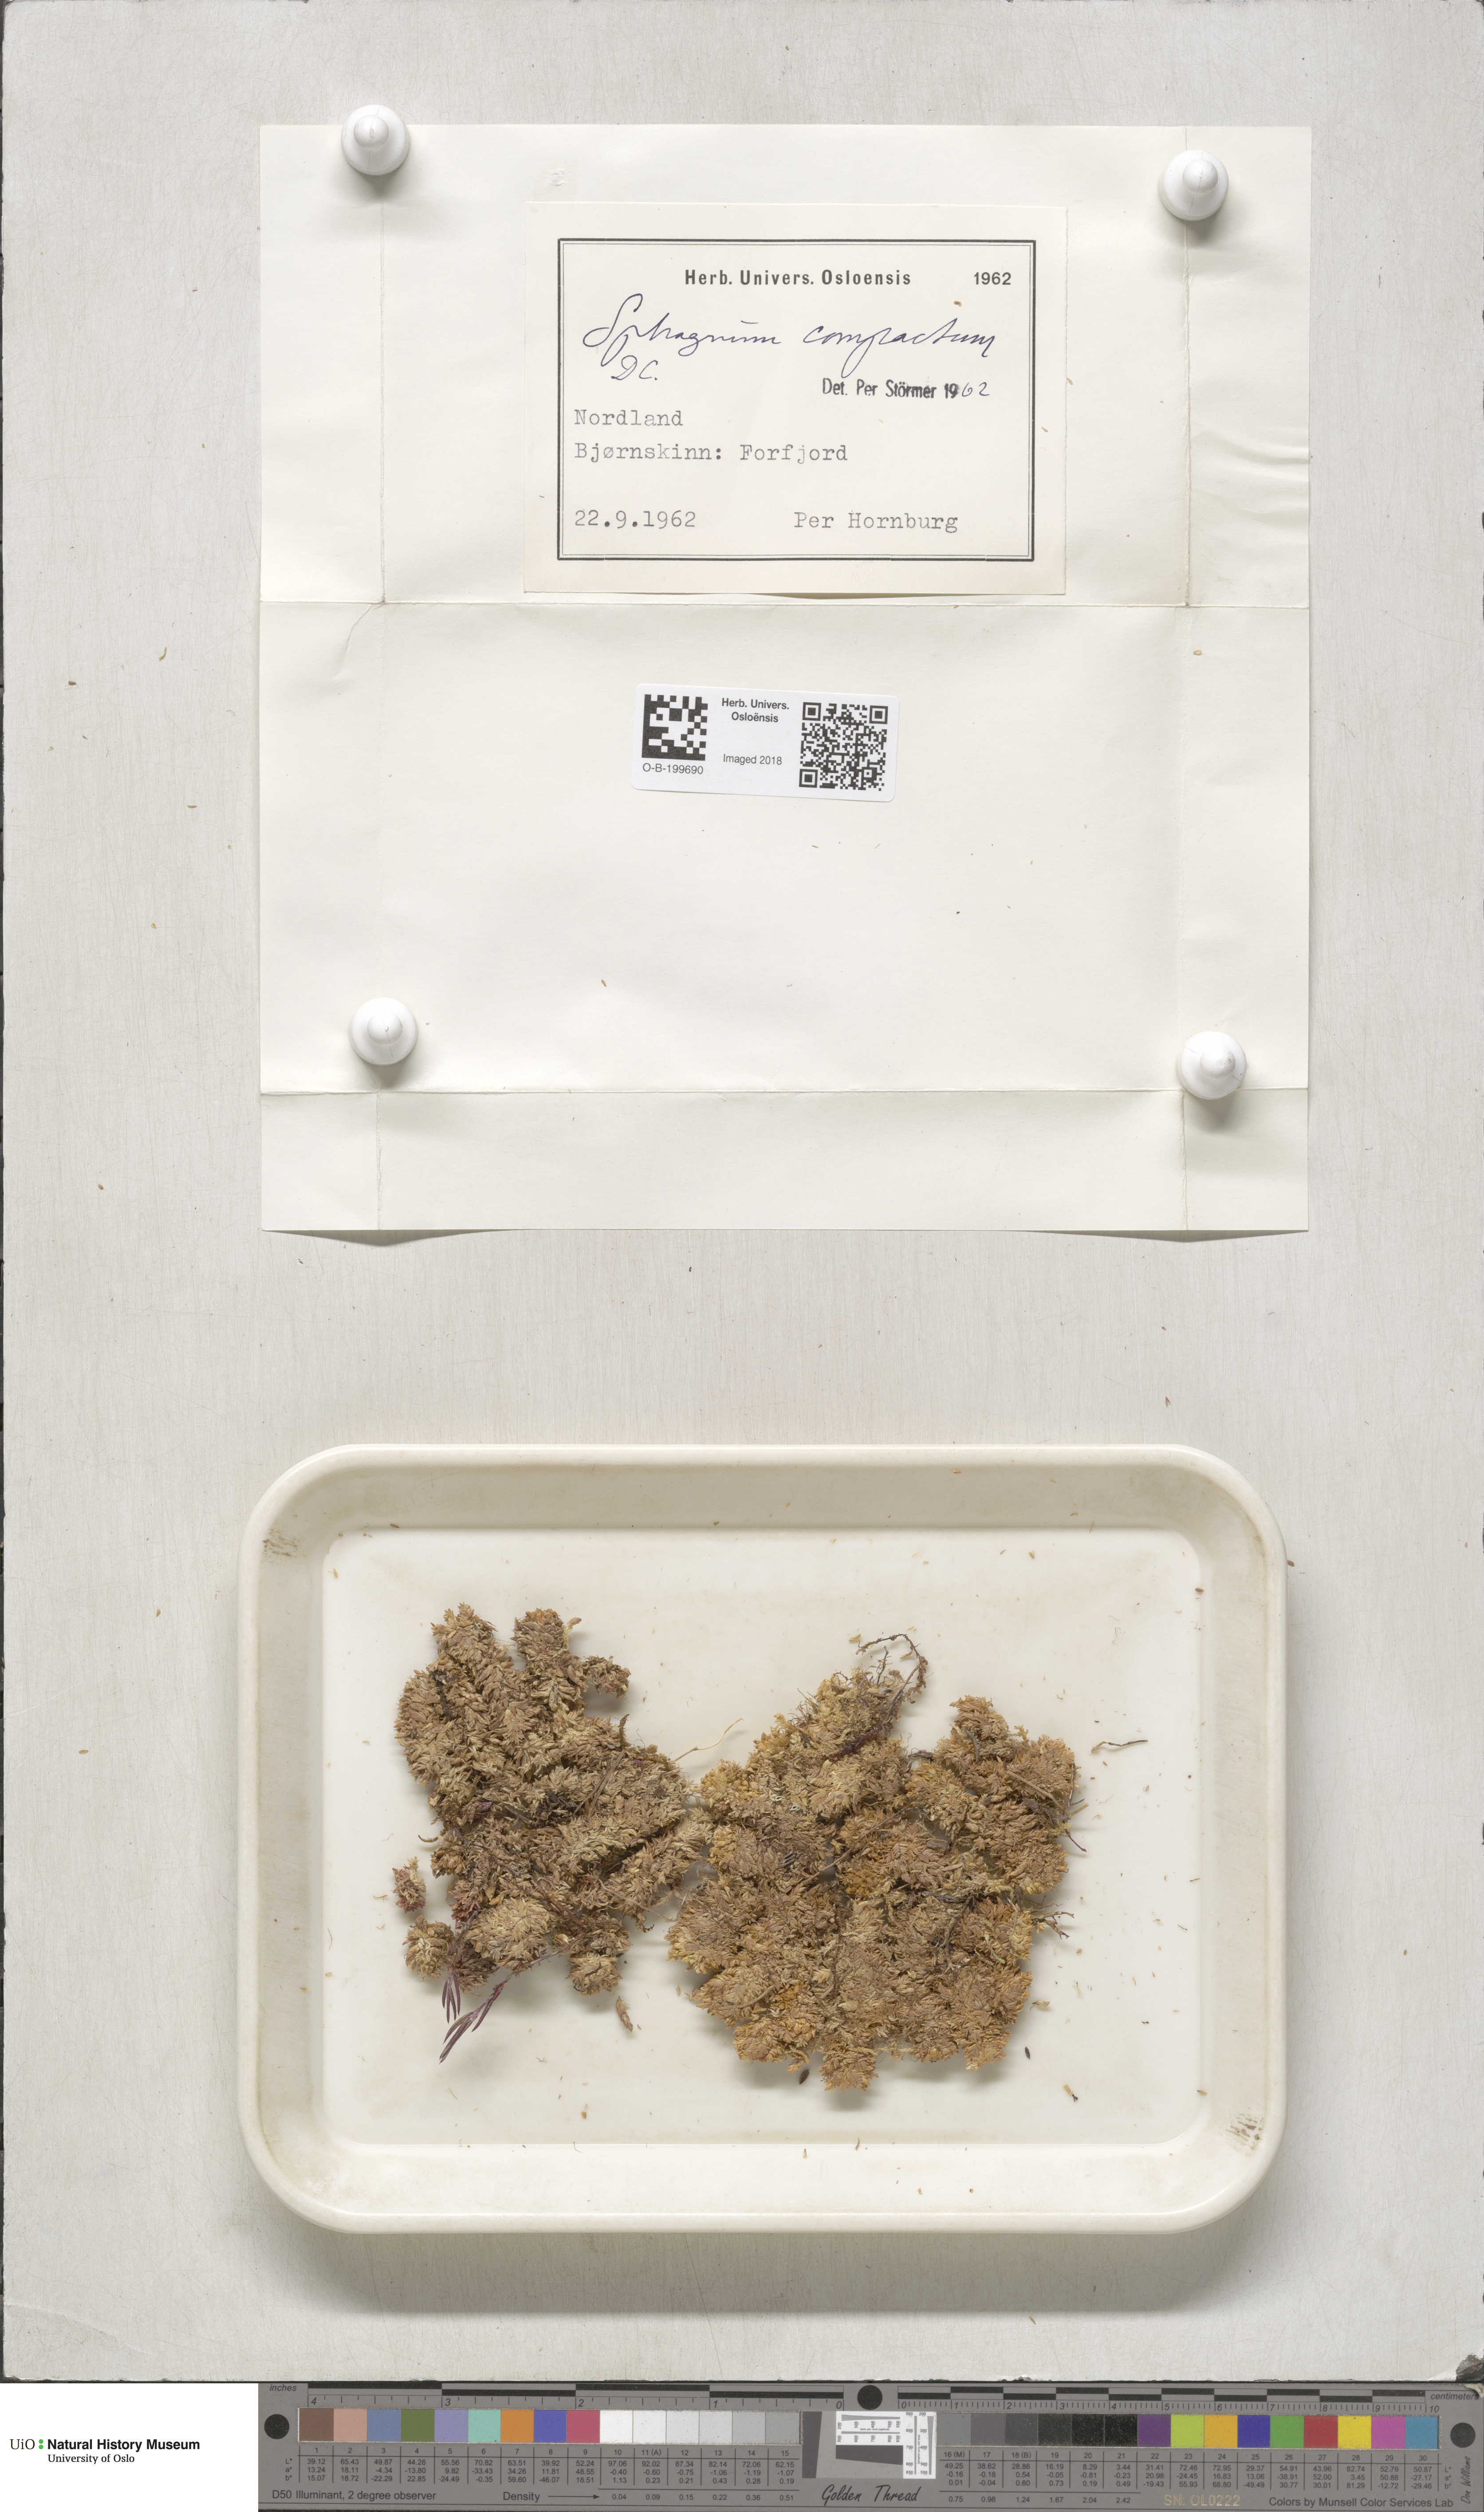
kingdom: Plantae
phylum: Bryophyta
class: Sphagnopsida
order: Sphagnales
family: Sphagnaceae
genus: Sphagnum
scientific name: Sphagnum compactum
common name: Compact peat moss
